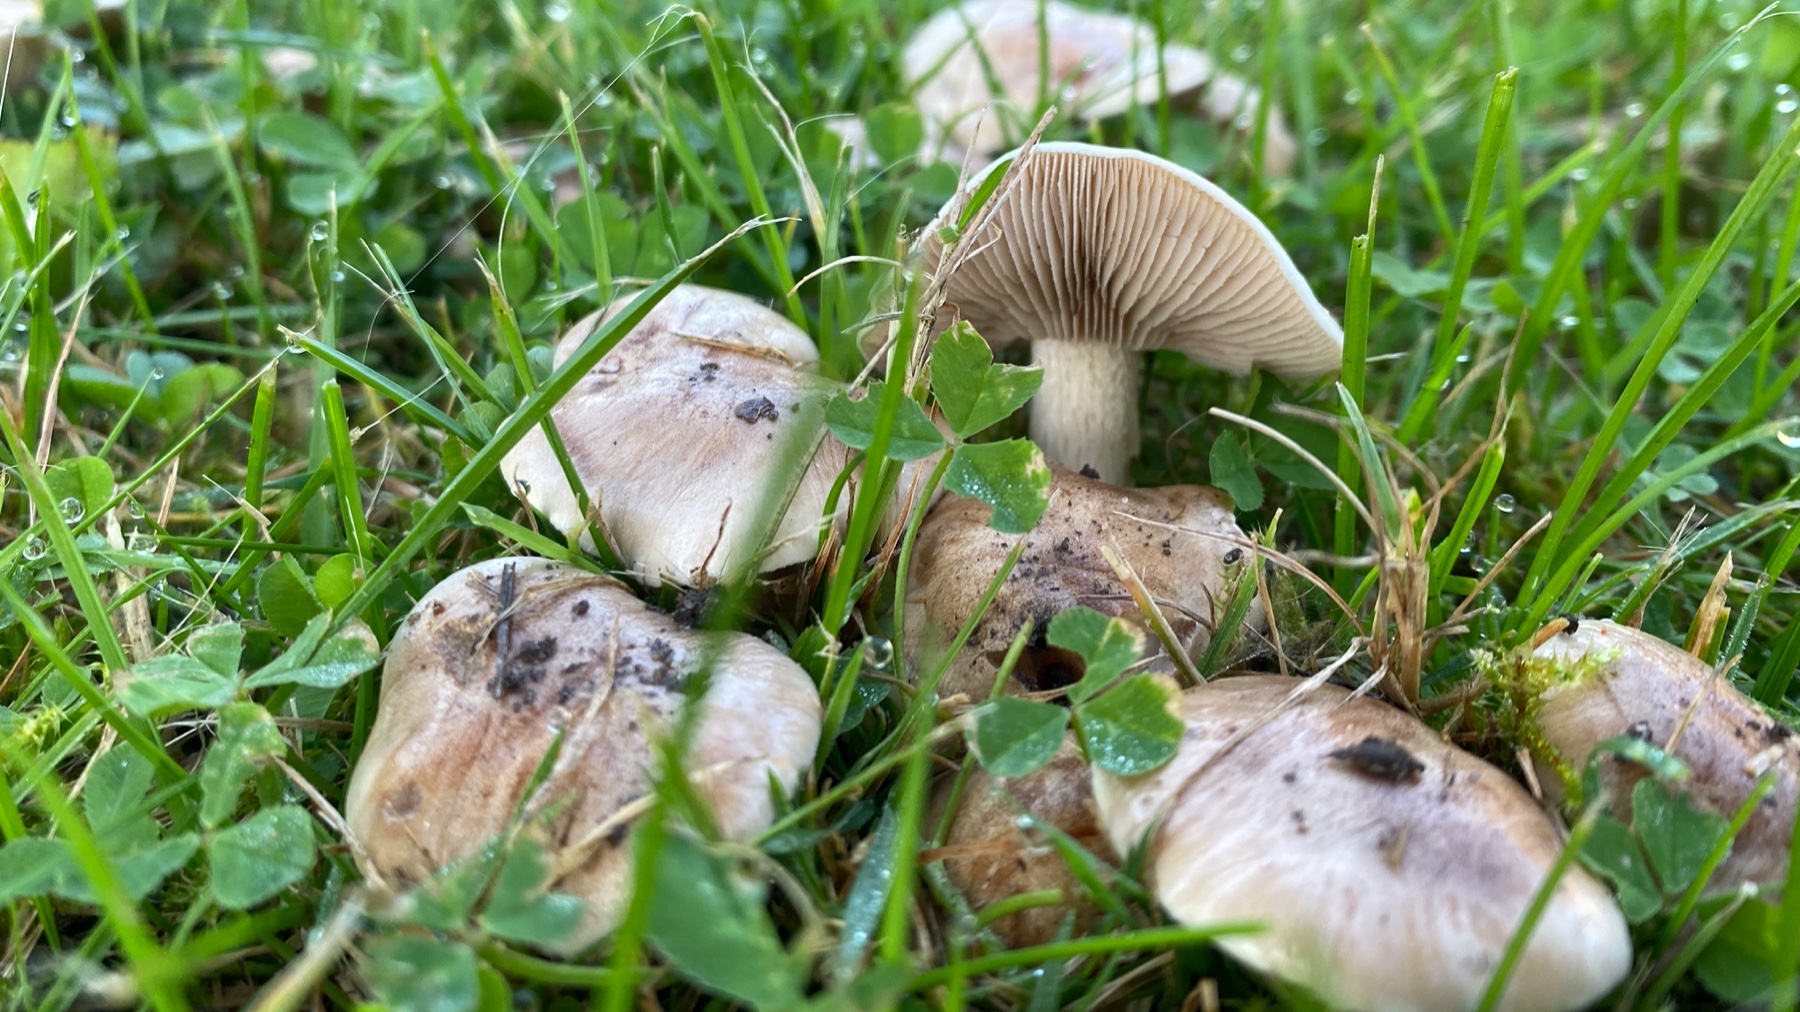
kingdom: Fungi
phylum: Basidiomycota
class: Agaricomycetes
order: Agaricales
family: Hymenogastraceae
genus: Hebeloma
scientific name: Hebeloma
